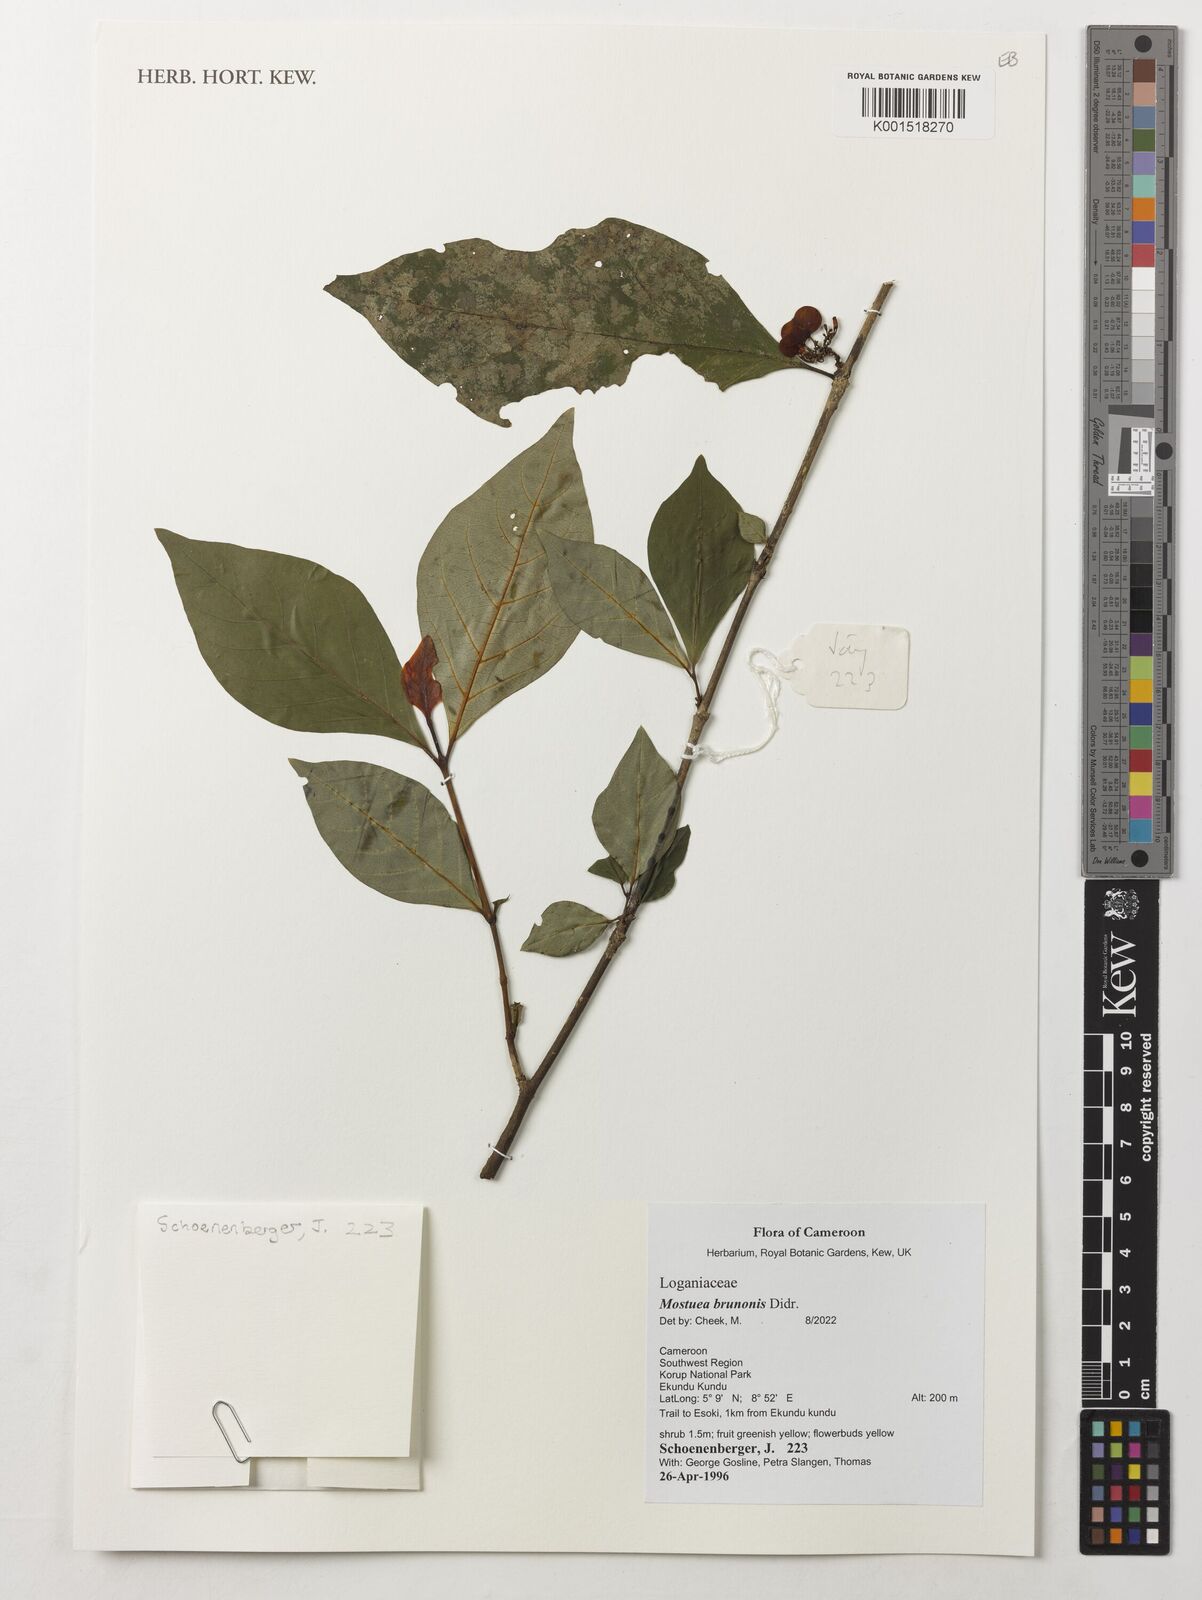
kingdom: Plantae
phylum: Tracheophyta
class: Magnoliopsida
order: Gentianales
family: Gelsemiaceae
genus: Mostuea
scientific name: Mostuea brunonis
